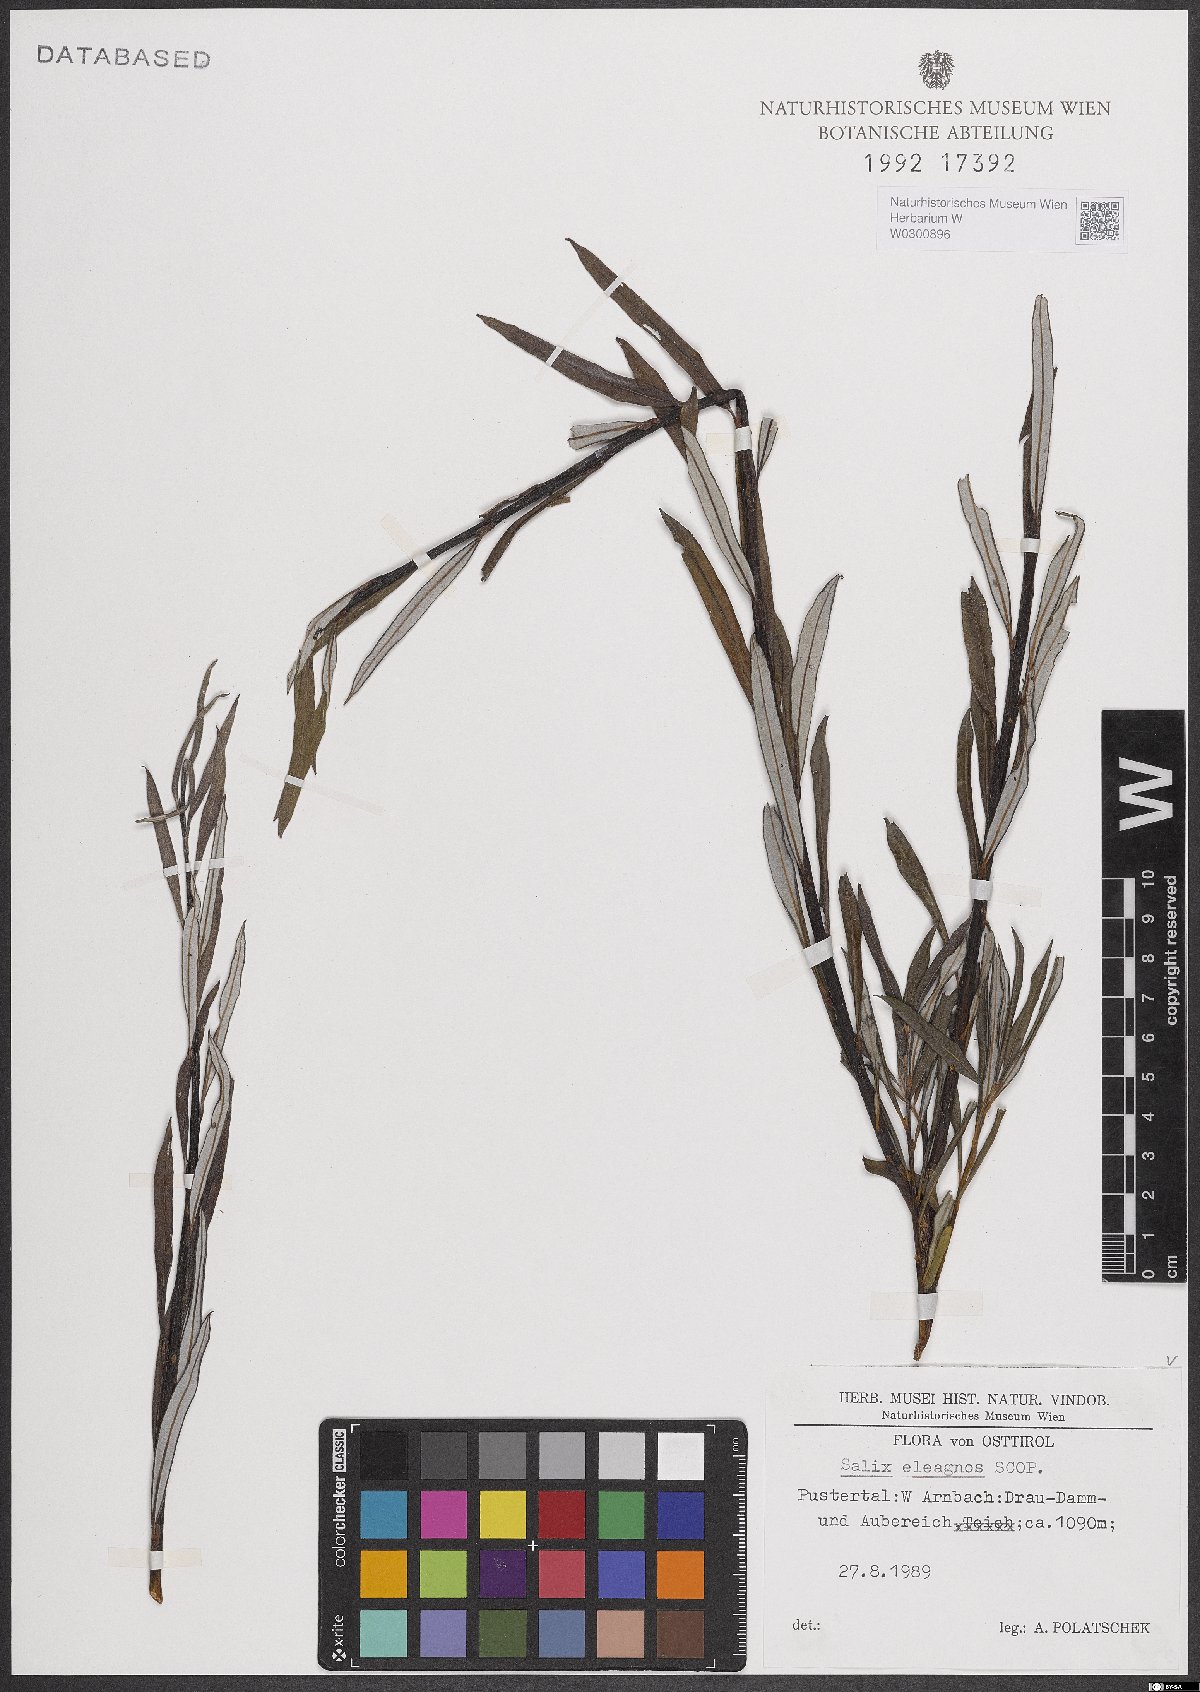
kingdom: Plantae
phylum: Tracheophyta
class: Magnoliopsida
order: Malpighiales
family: Salicaceae
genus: Salix
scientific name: Salix eleagnos
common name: Elaeagnus willow
